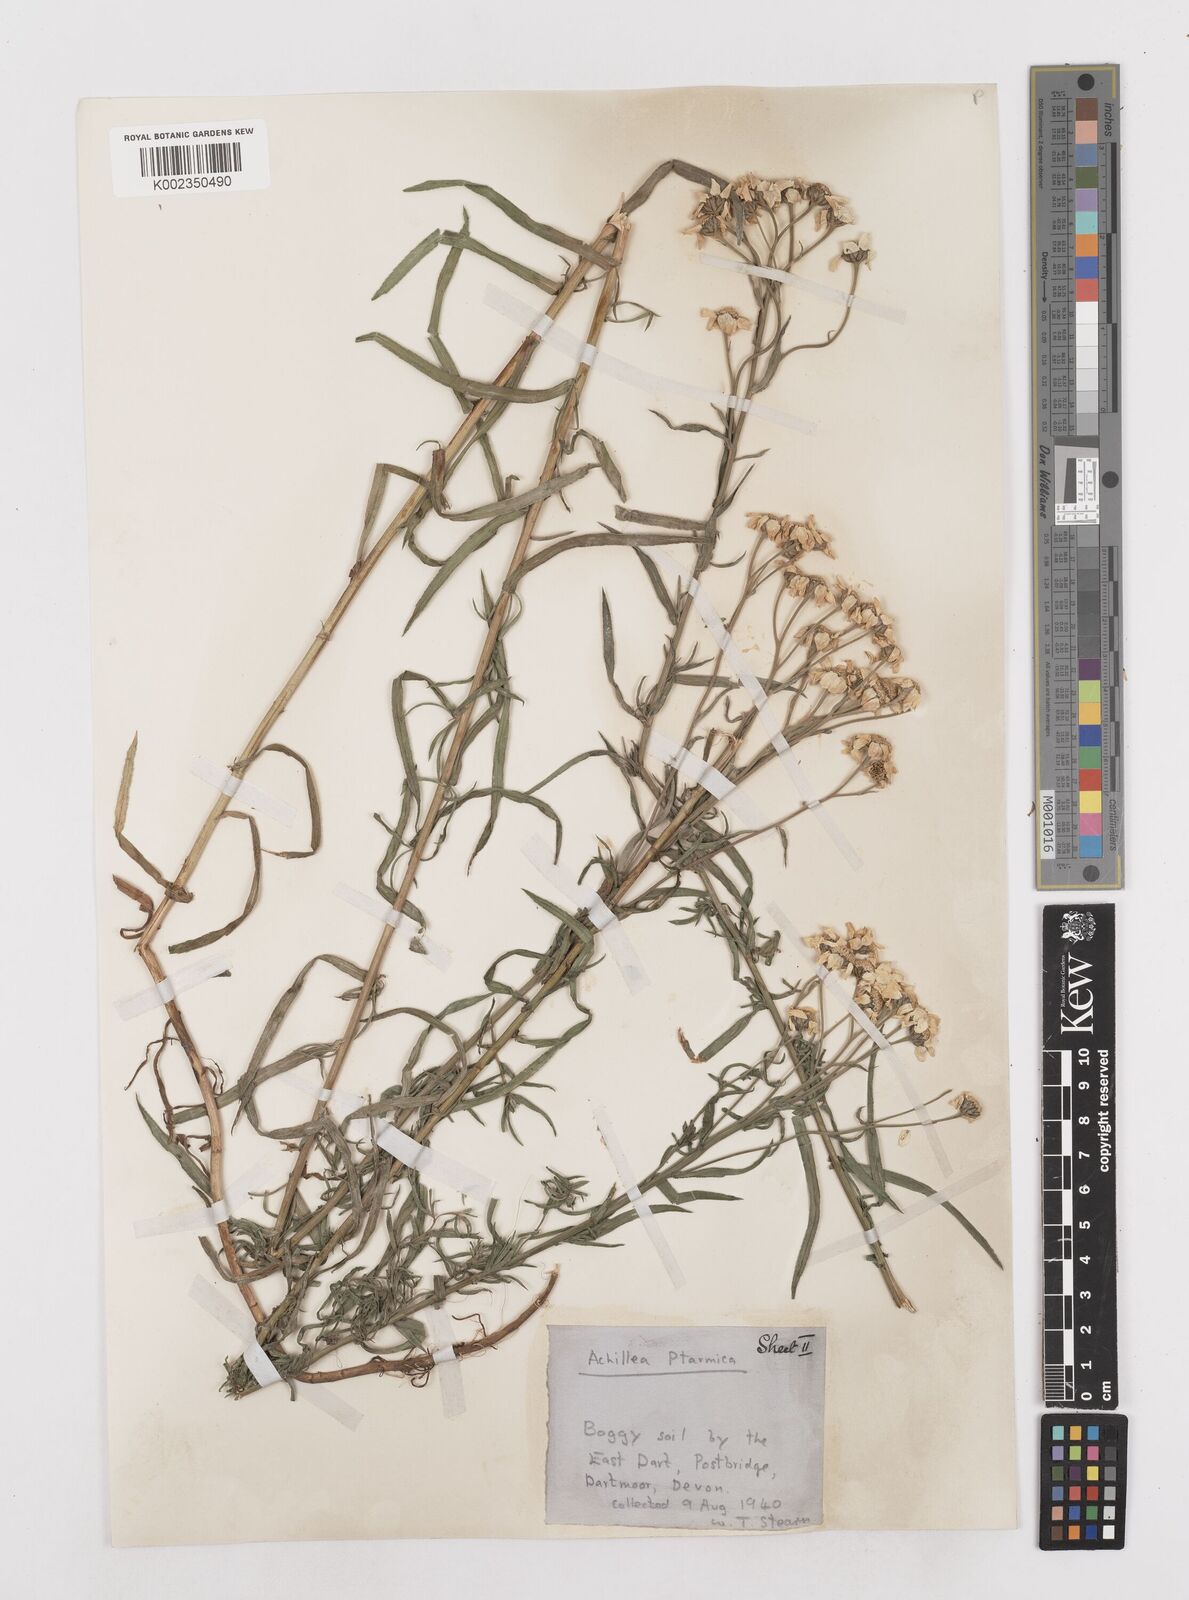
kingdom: Plantae
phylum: Tracheophyta
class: Magnoliopsida
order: Asterales
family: Asteraceae
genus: Achillea
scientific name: Achillea ptarmica
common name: Sneezeweed
